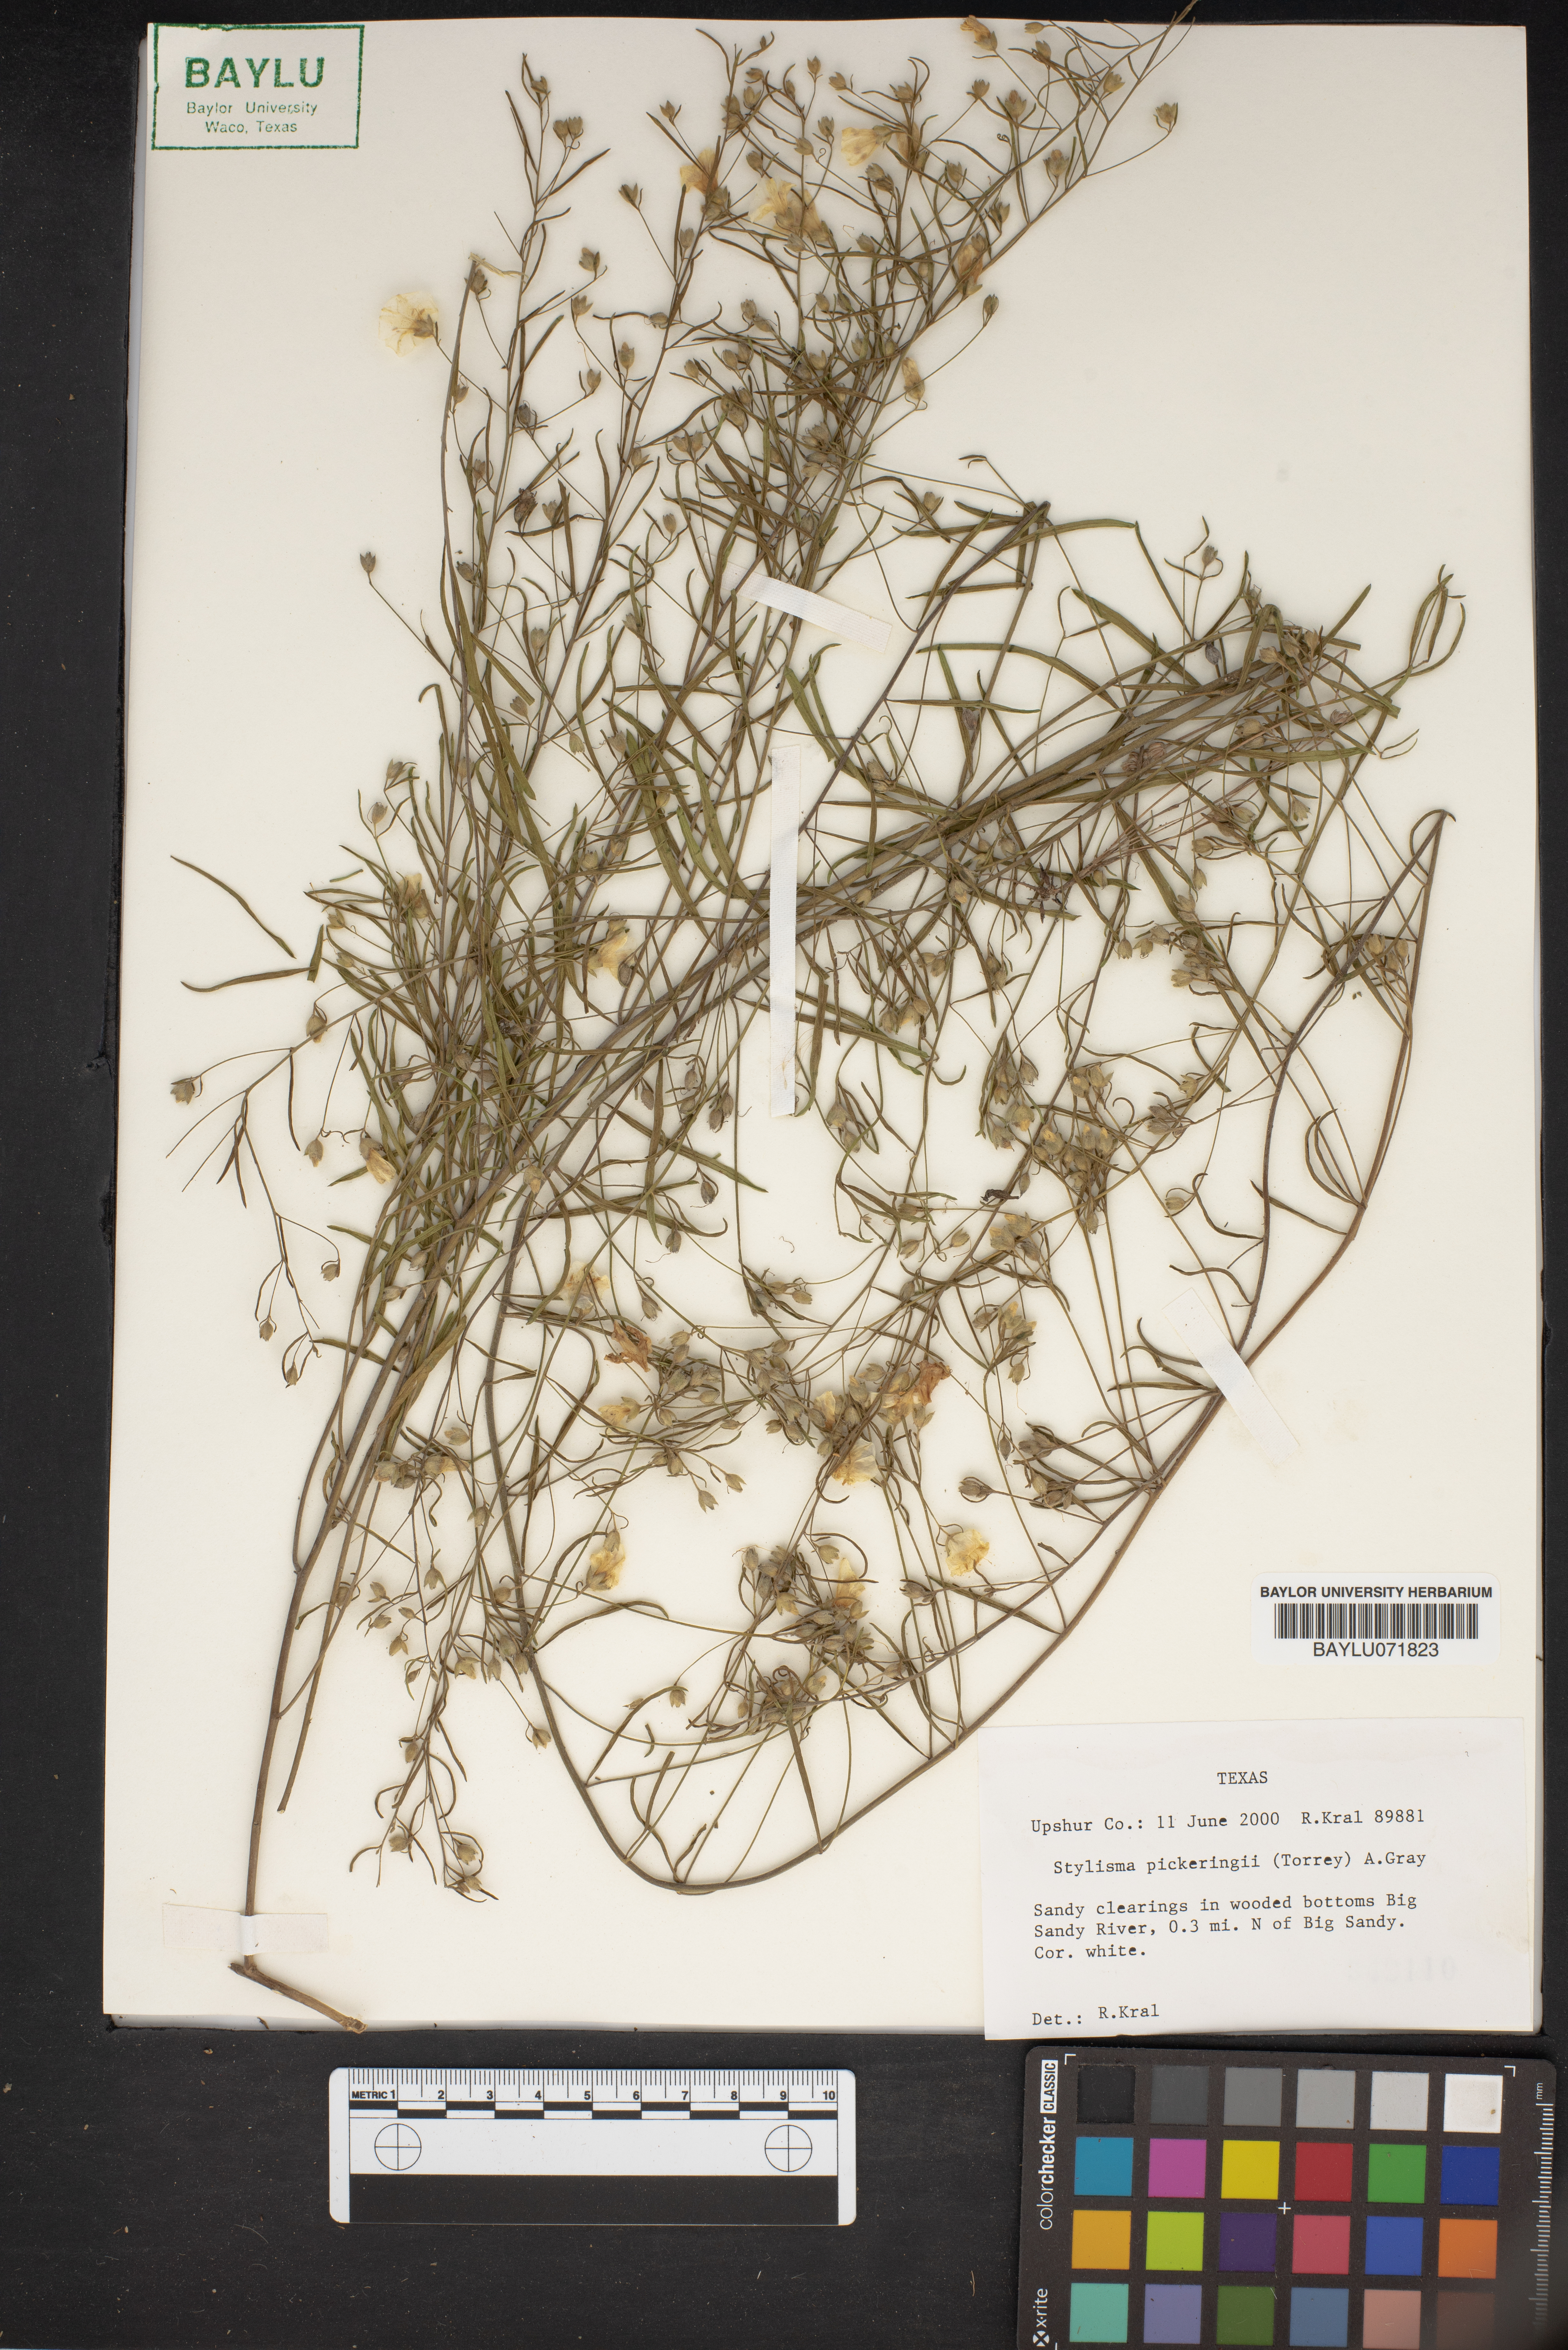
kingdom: Plantae
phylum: Tracheophyta
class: Magnoliopsida
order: Solanales
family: Convolvulaceae
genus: Stylisma
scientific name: Stylisma pickeringii
